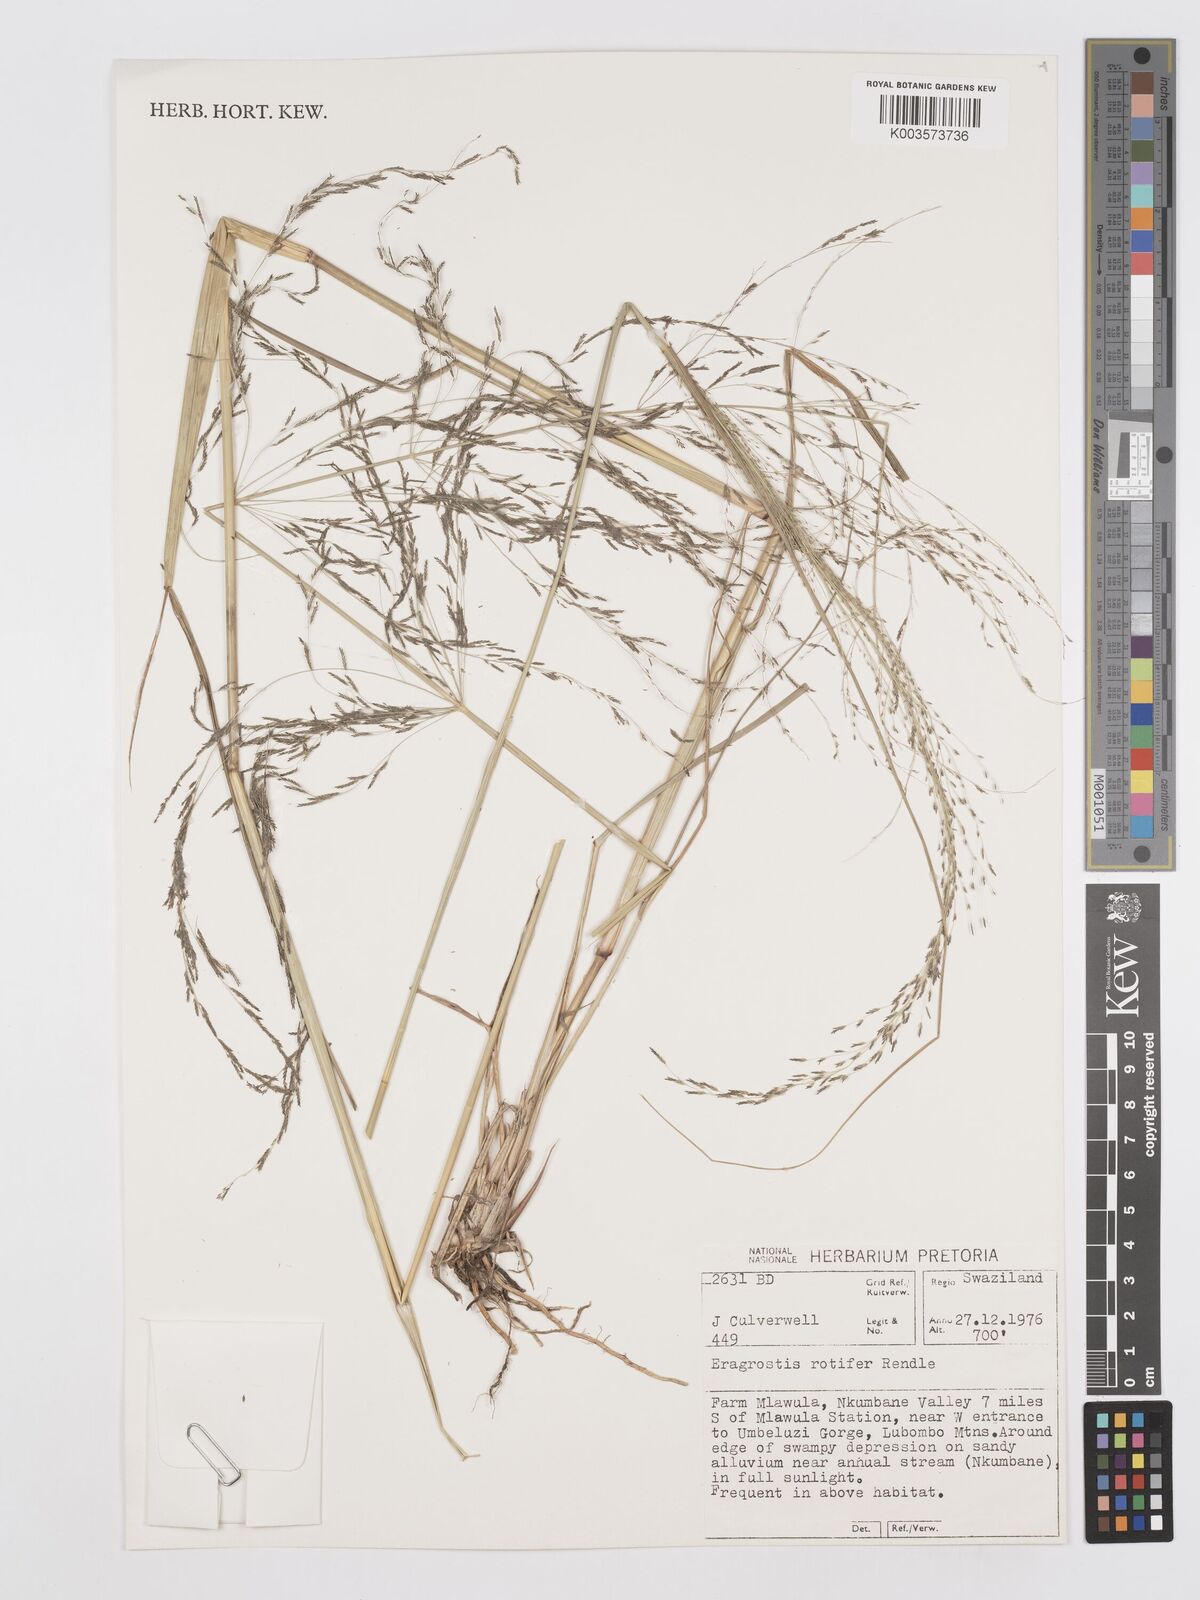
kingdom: Plantae
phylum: Tracheophyta
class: Liliopsida
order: Poales
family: Poaceae
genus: Eragrostis
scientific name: Eragrostis rotifer
